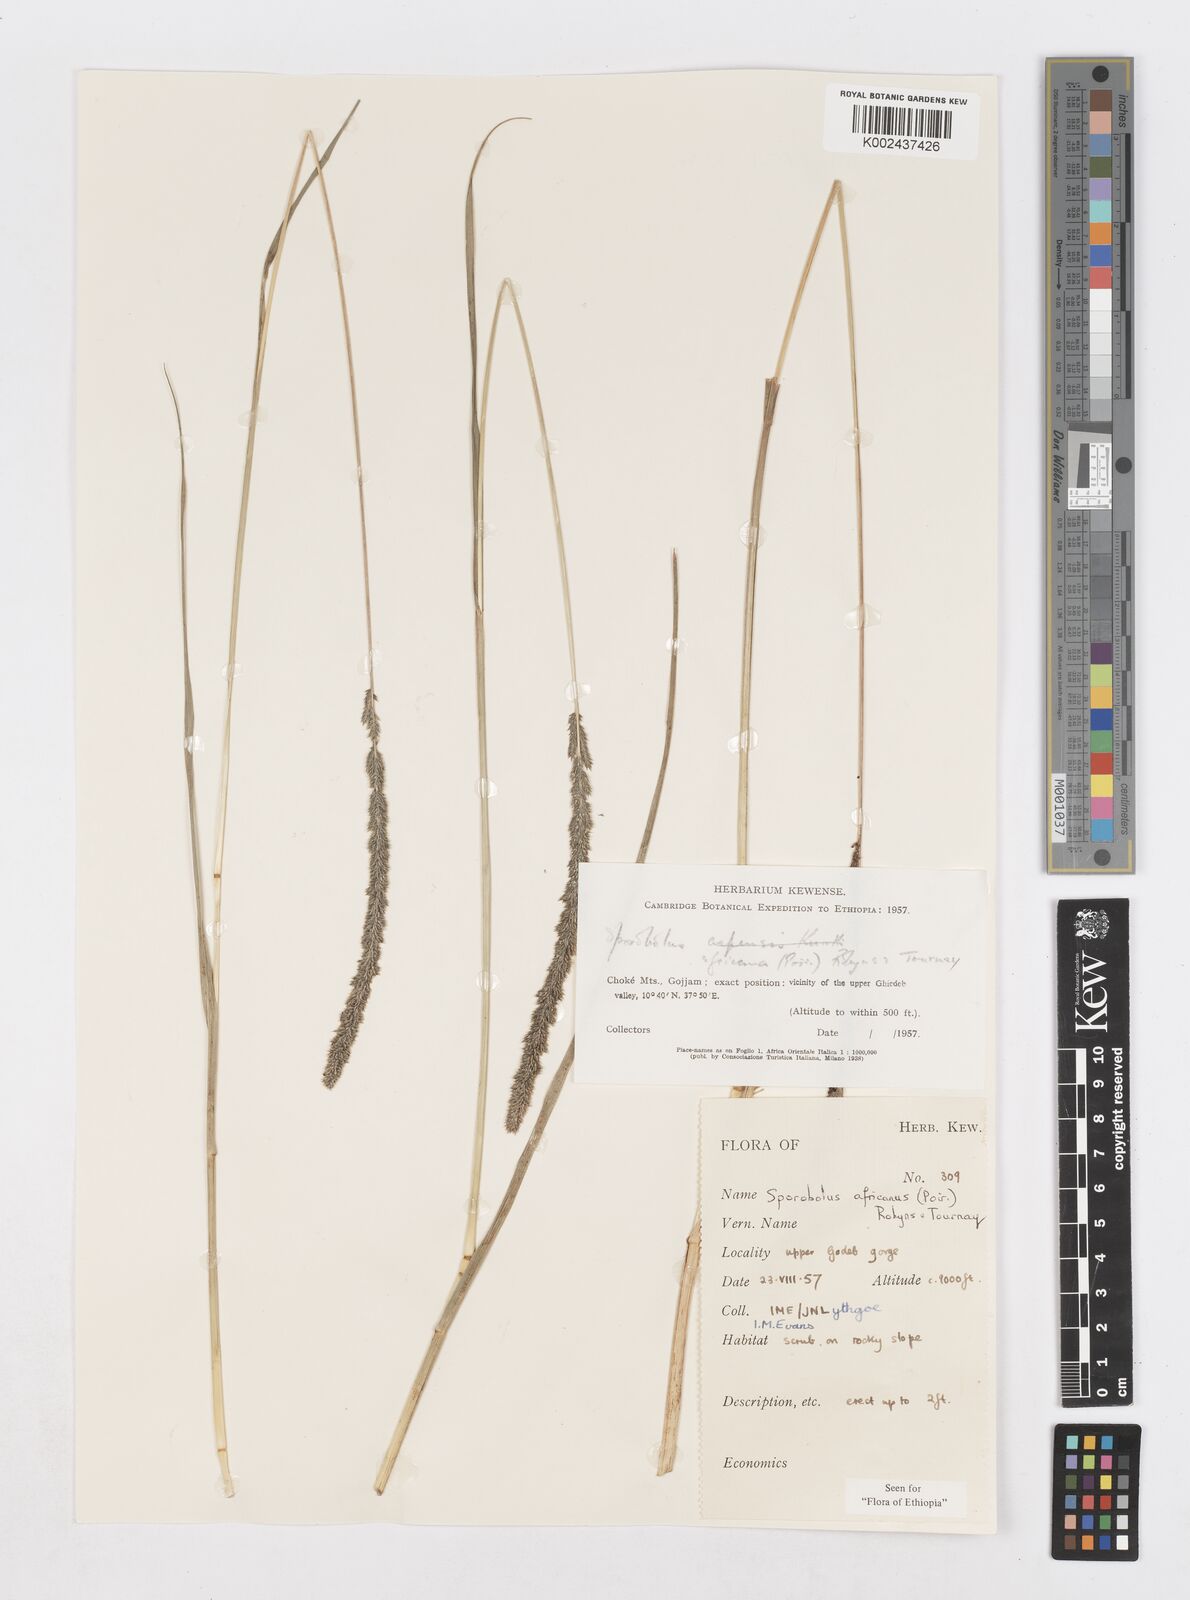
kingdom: Plantae
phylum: Tracheophyta
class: Liliopsida
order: Poales
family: Poaceae
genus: Sporobolus
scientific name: Sporobolus africanus
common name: African dropseed
